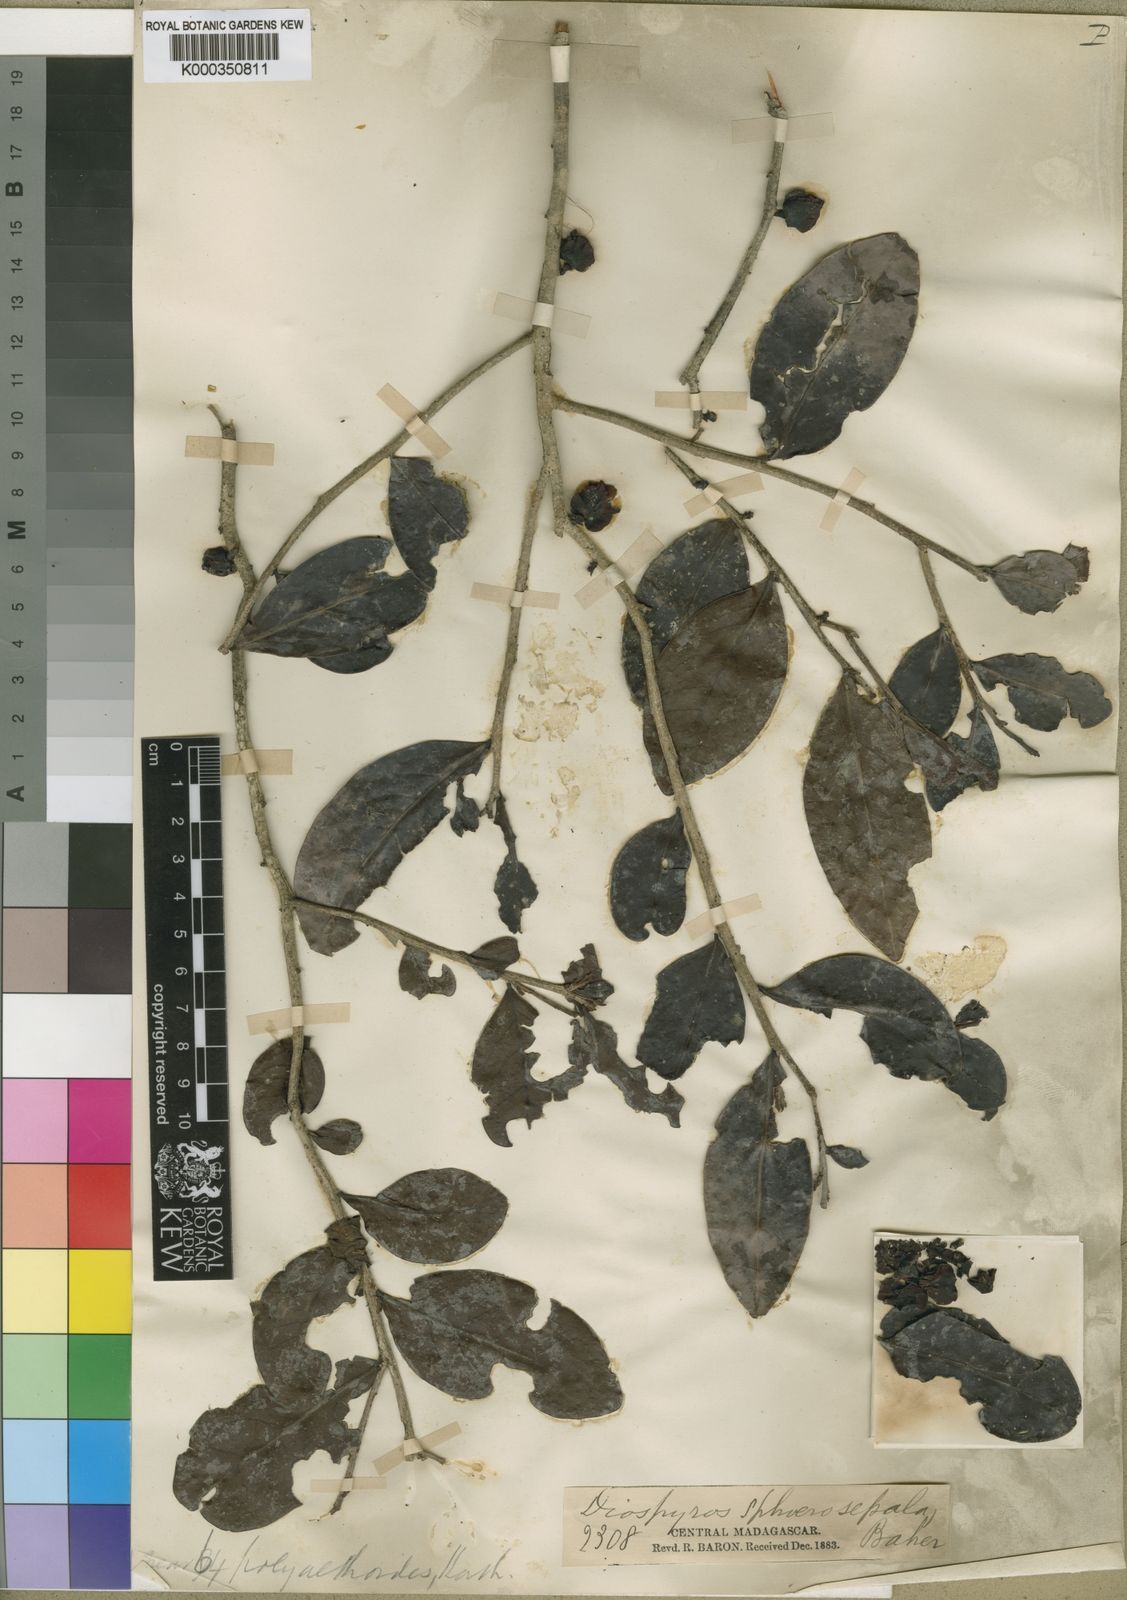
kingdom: Plantae
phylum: Tracheophyta
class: Magnoliopsida
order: Ericales
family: Ebenaceae
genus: Diospyros
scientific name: Diospyros sphaerosepala
